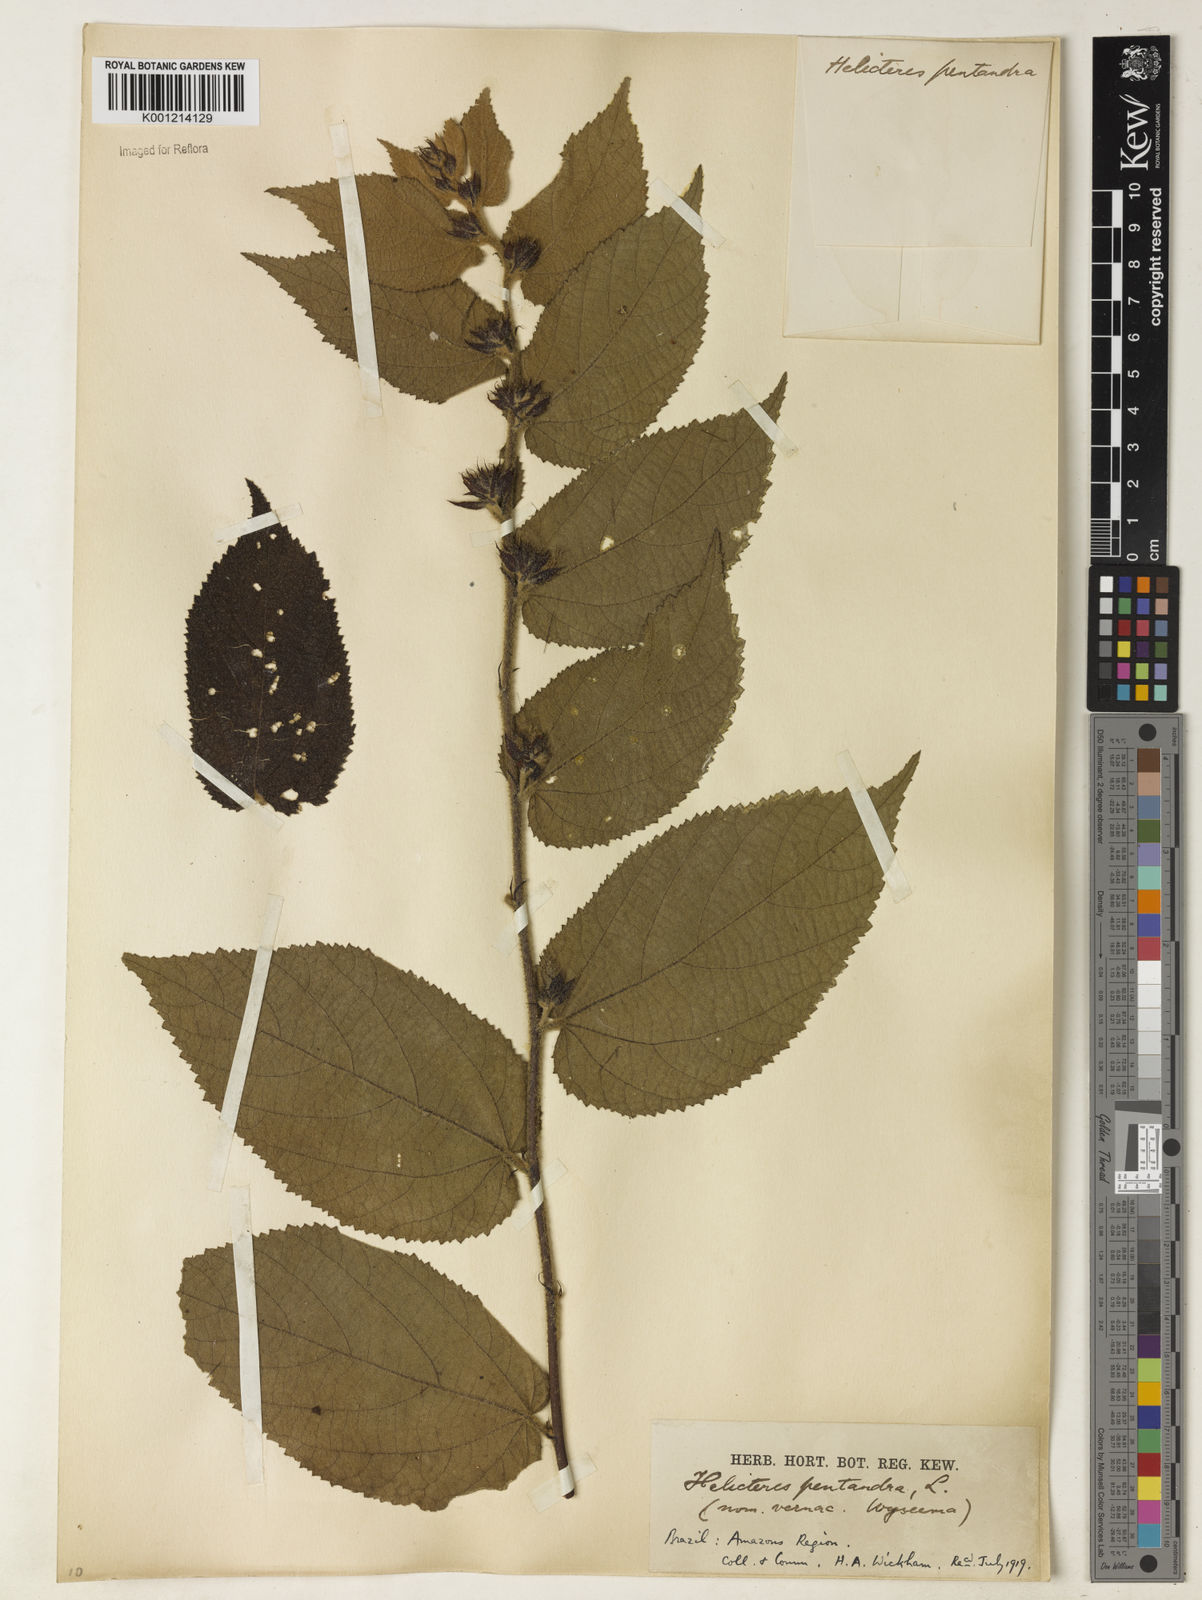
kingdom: Plantae
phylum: Tracheophyta
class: Magnoliopsida
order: Malvales
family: Malvaceae
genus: Helicteres
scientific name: Helicteres pentandra
